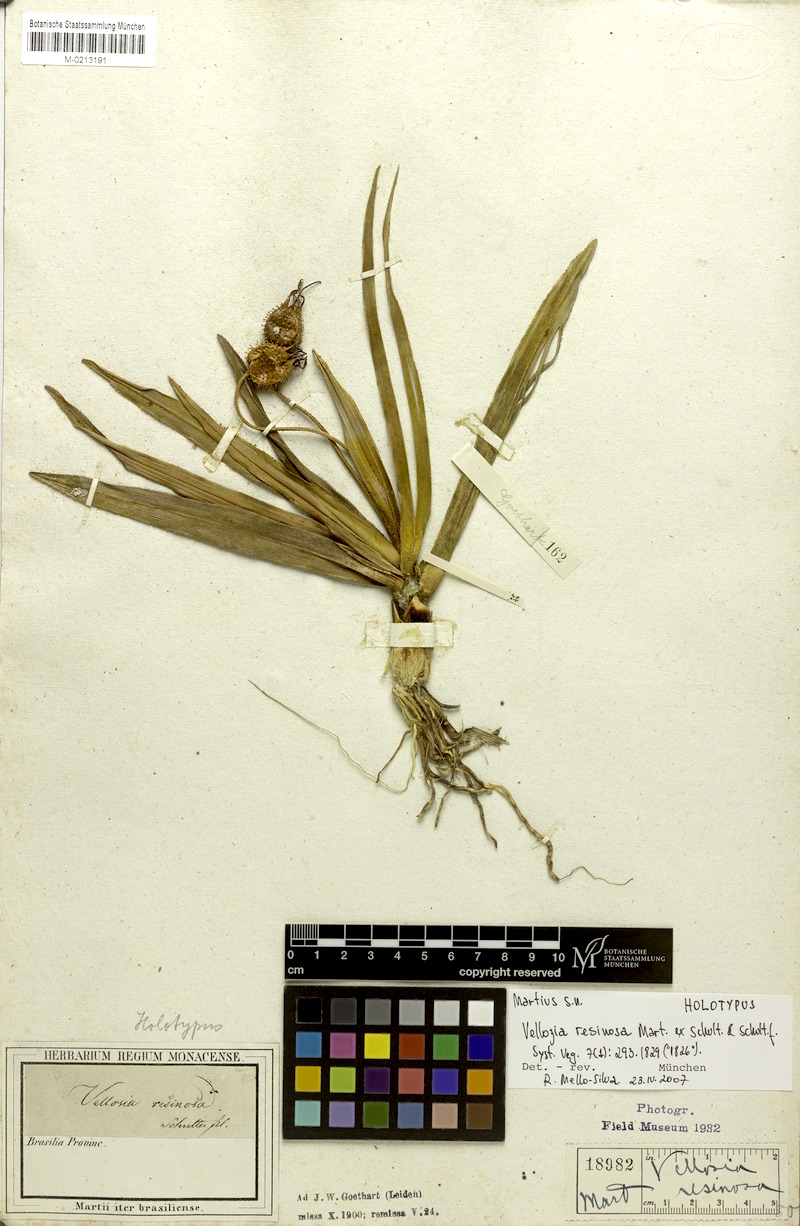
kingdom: Plantae
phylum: Tracheophyta
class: Liliopsida
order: Pandanales
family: Velloziaceae
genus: Vellozia
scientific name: Vellozia resinosa
